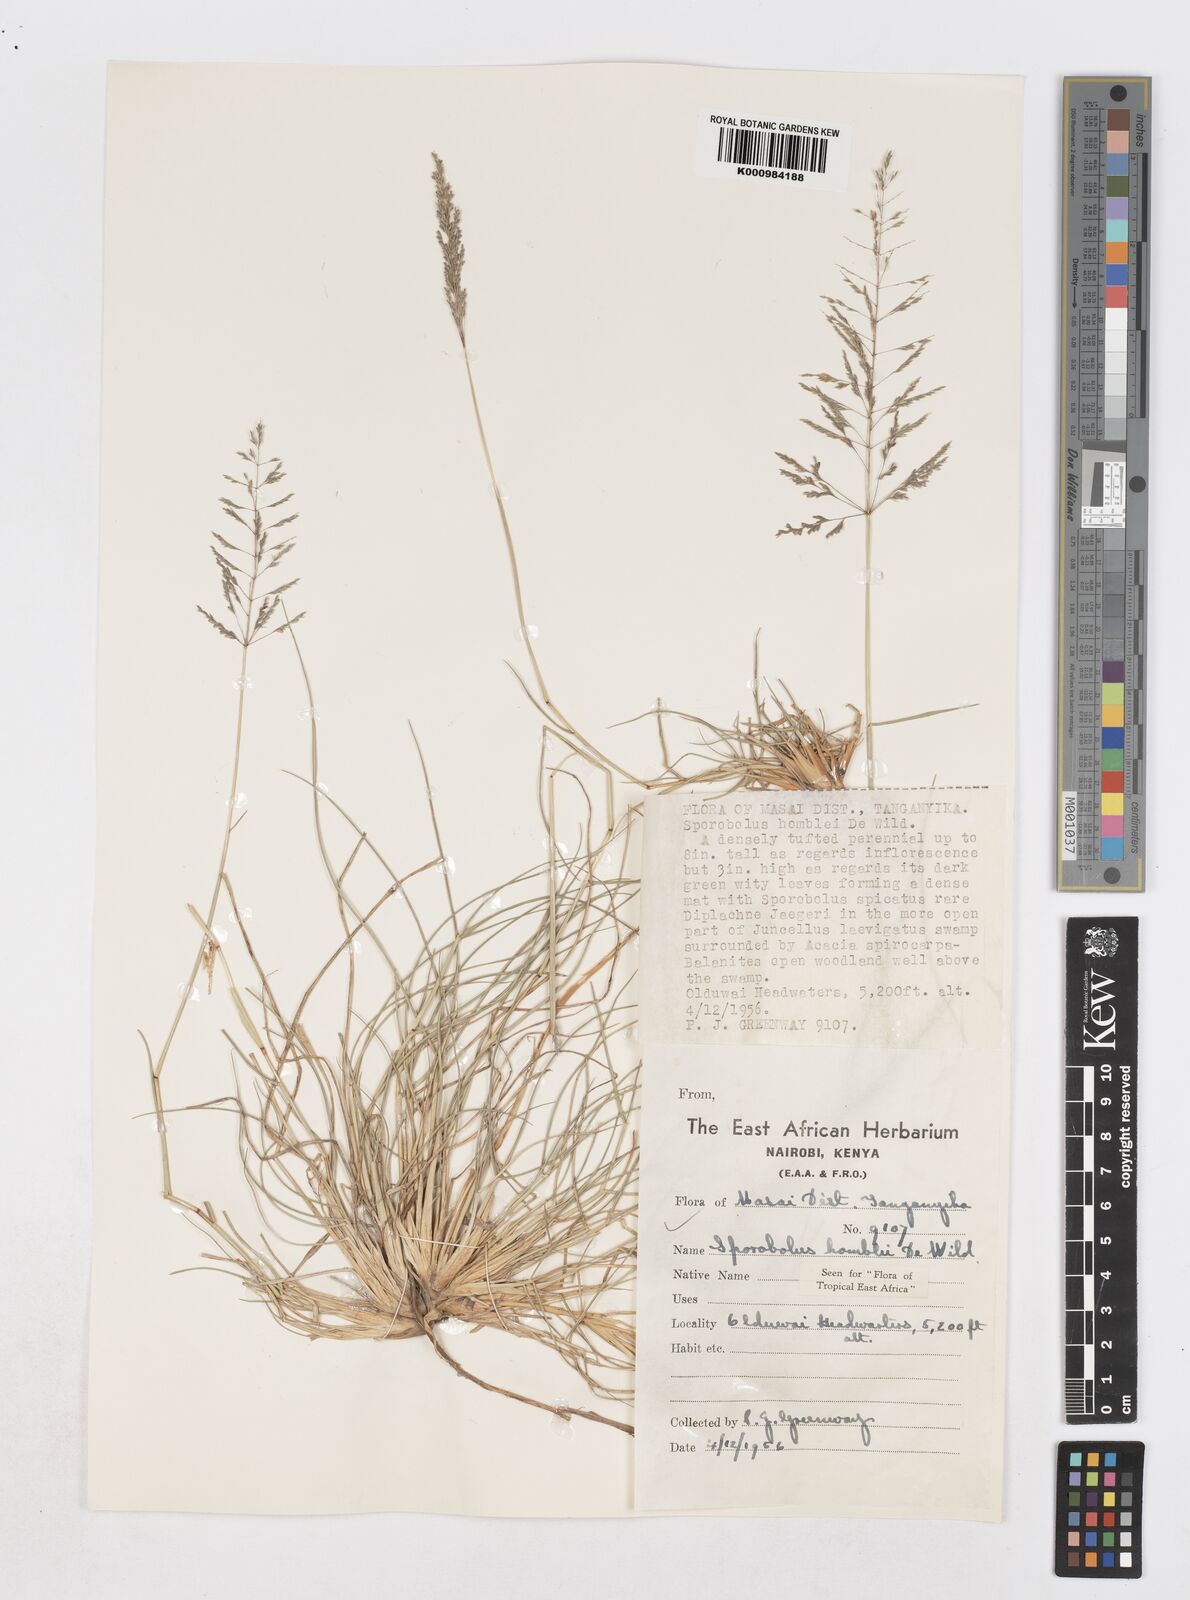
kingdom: Plantae
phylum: Tracheophyta
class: Liliopsida
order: Poales
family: Poaceae
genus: Sporobolus
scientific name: Sporobolus ioclados
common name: Pan dropseed
